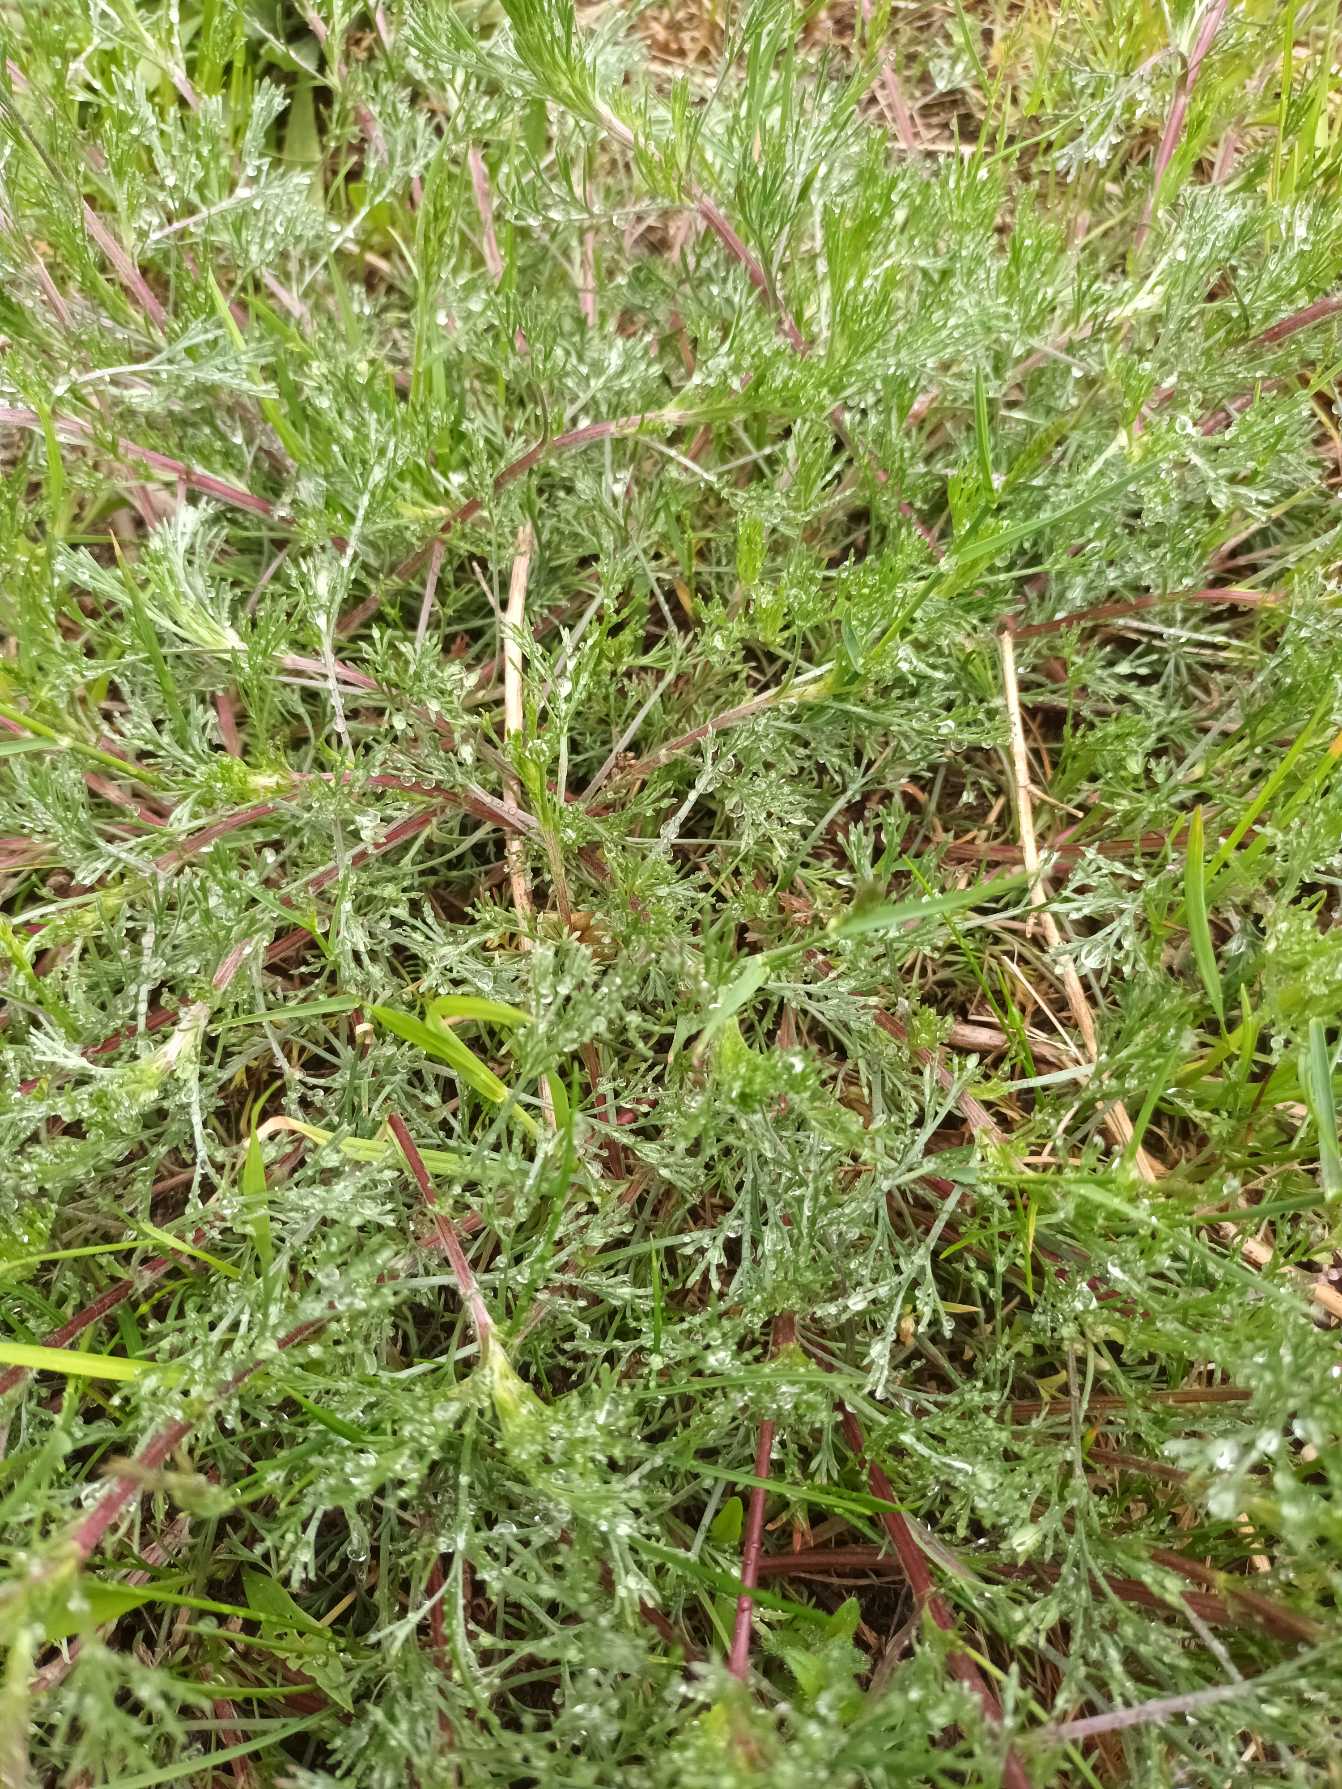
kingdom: Plantae
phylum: Tracheophyta
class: Magnoliopsida
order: Asterales
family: Asteraceae
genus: Artemisia
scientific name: Artemisia campestris
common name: Mark-bynke
